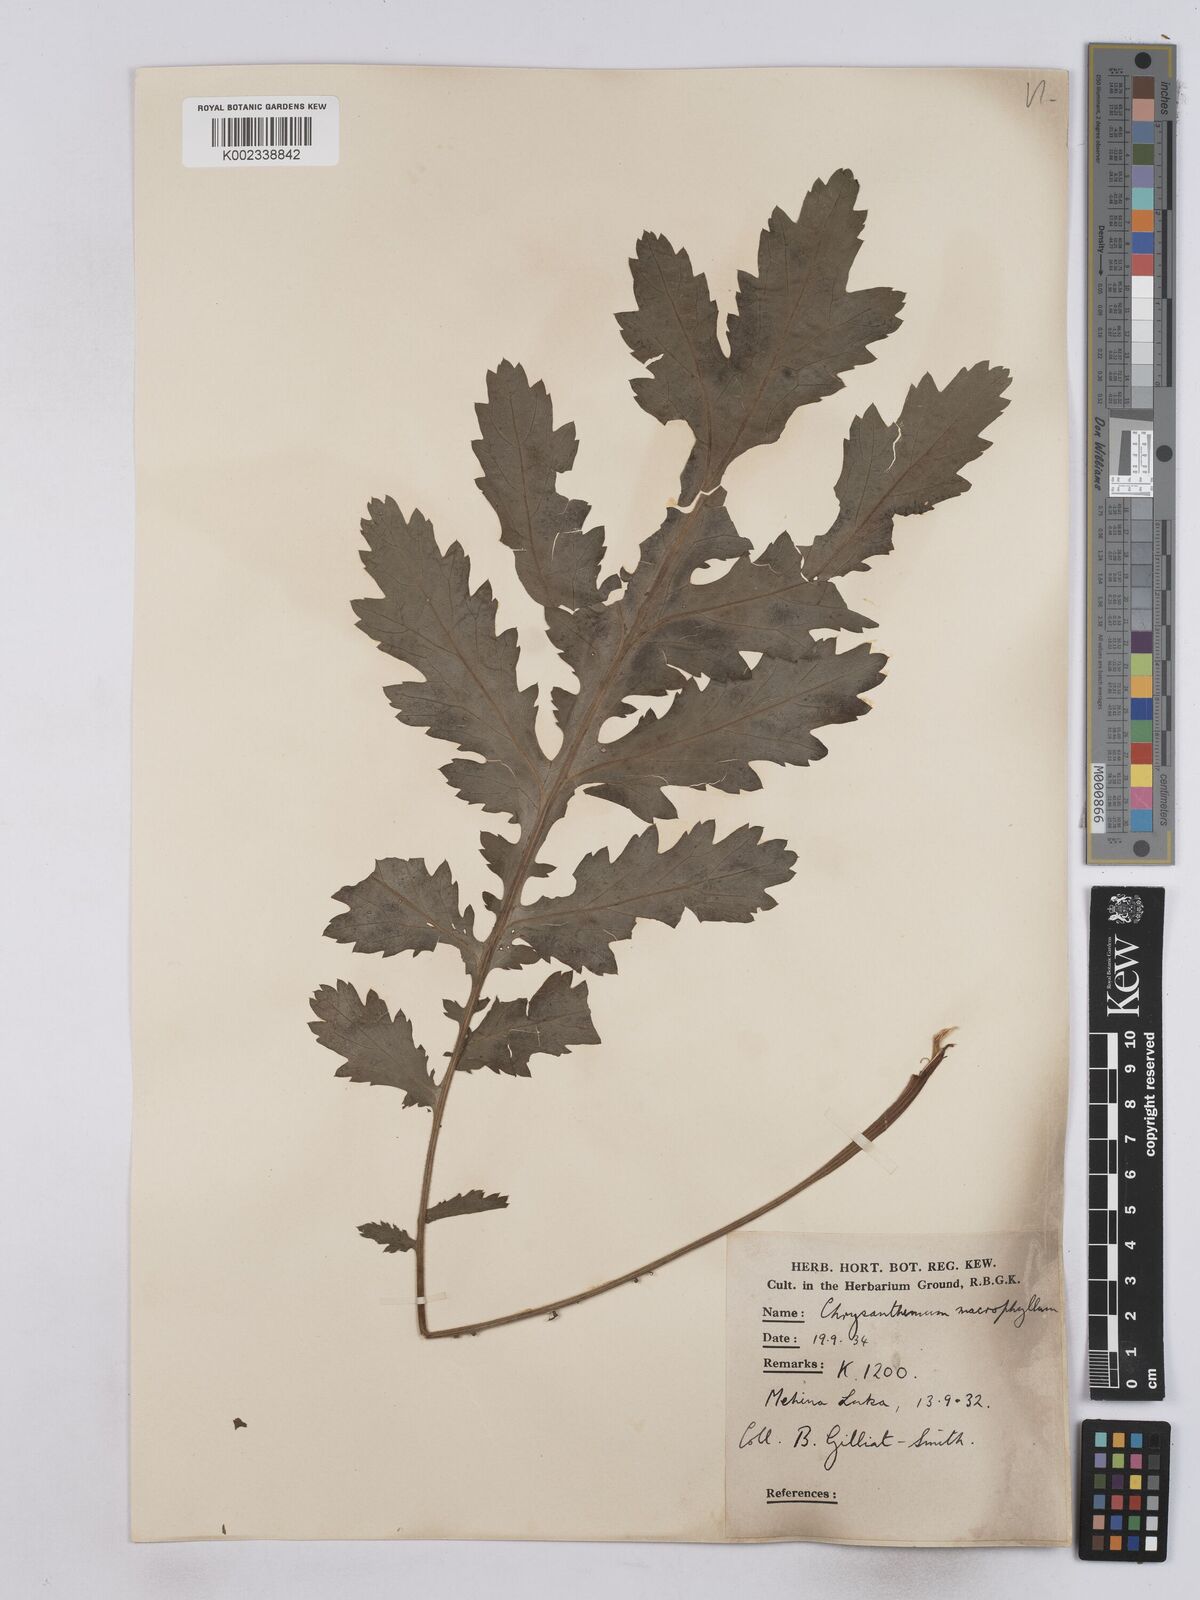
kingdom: Plantae
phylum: Tracheophyta
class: Magnoliopsida
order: Asterales
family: Asteraceae
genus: Tanacetum
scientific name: Tanacetum macrophyllum
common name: Rayed tansy
